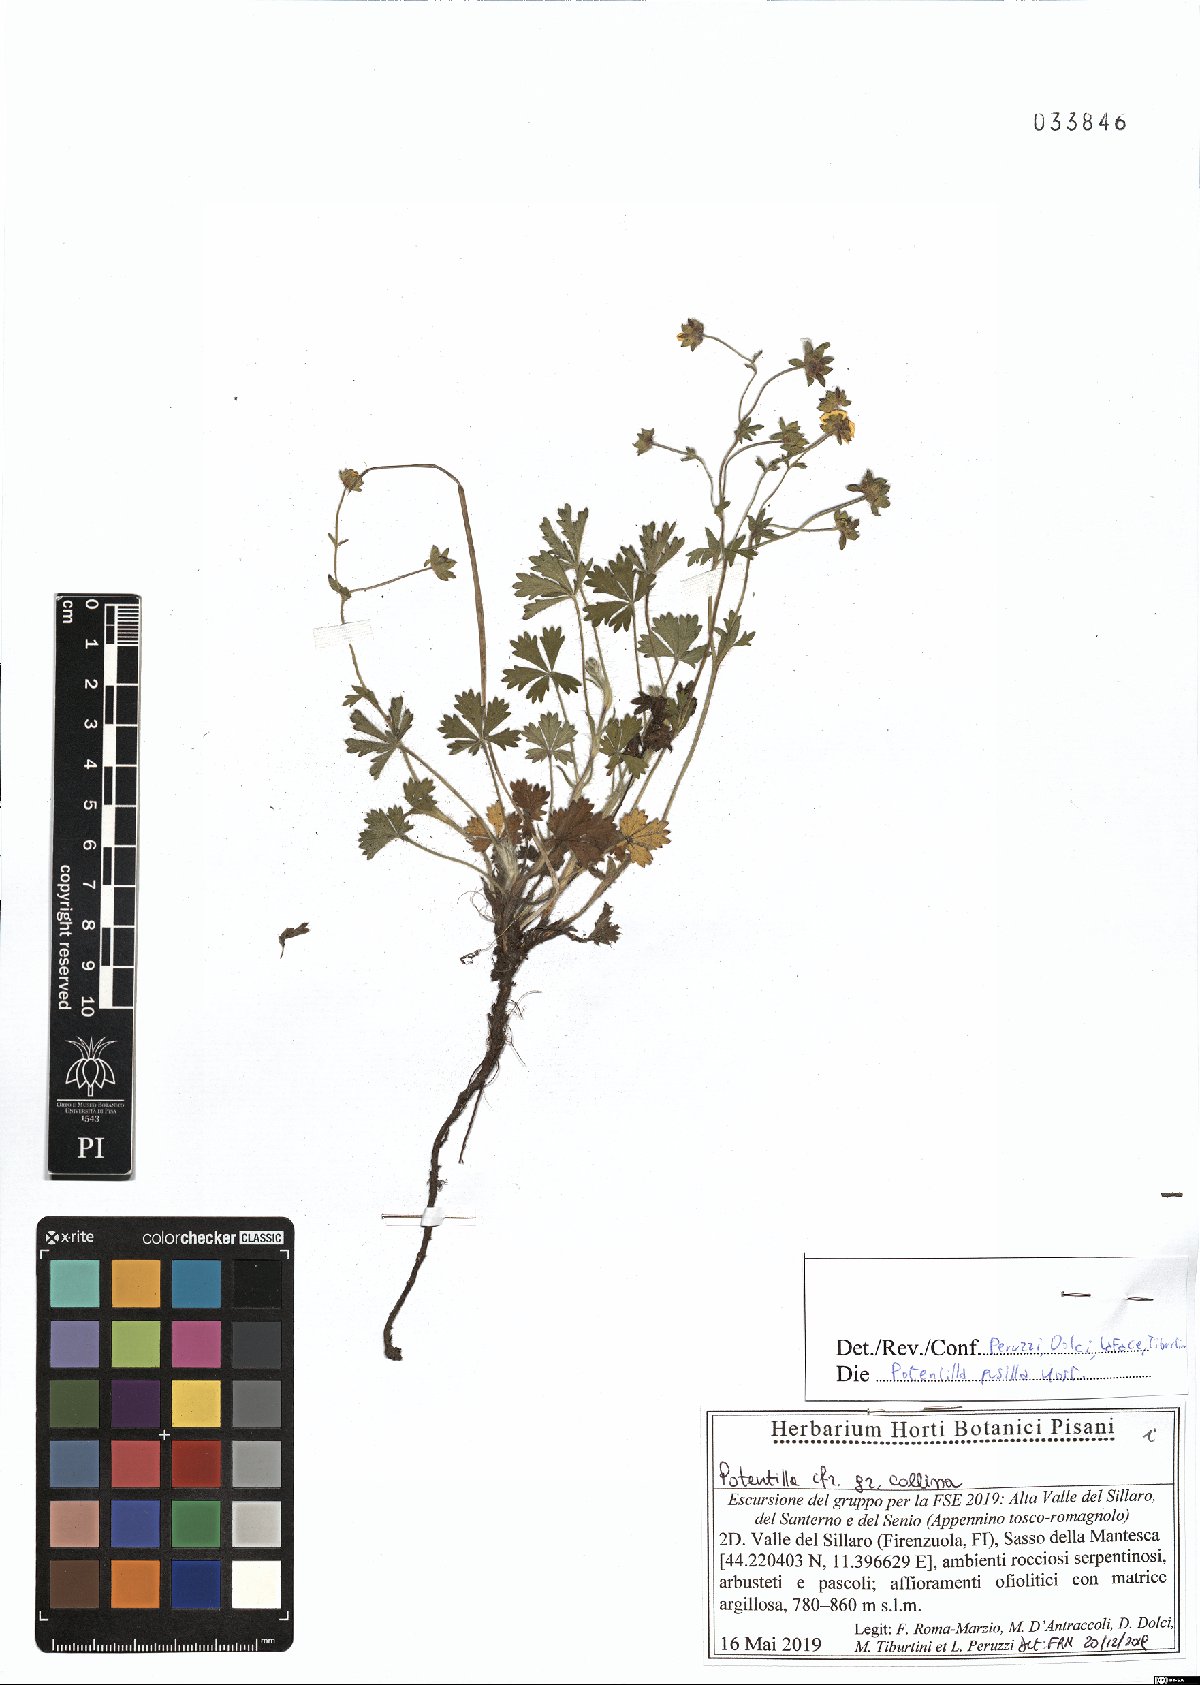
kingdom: Plantae
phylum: Tracheophyta
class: Magnoliopsida
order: Rosales
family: Rosaceae
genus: Potentilla
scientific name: Potentilla pusilla
